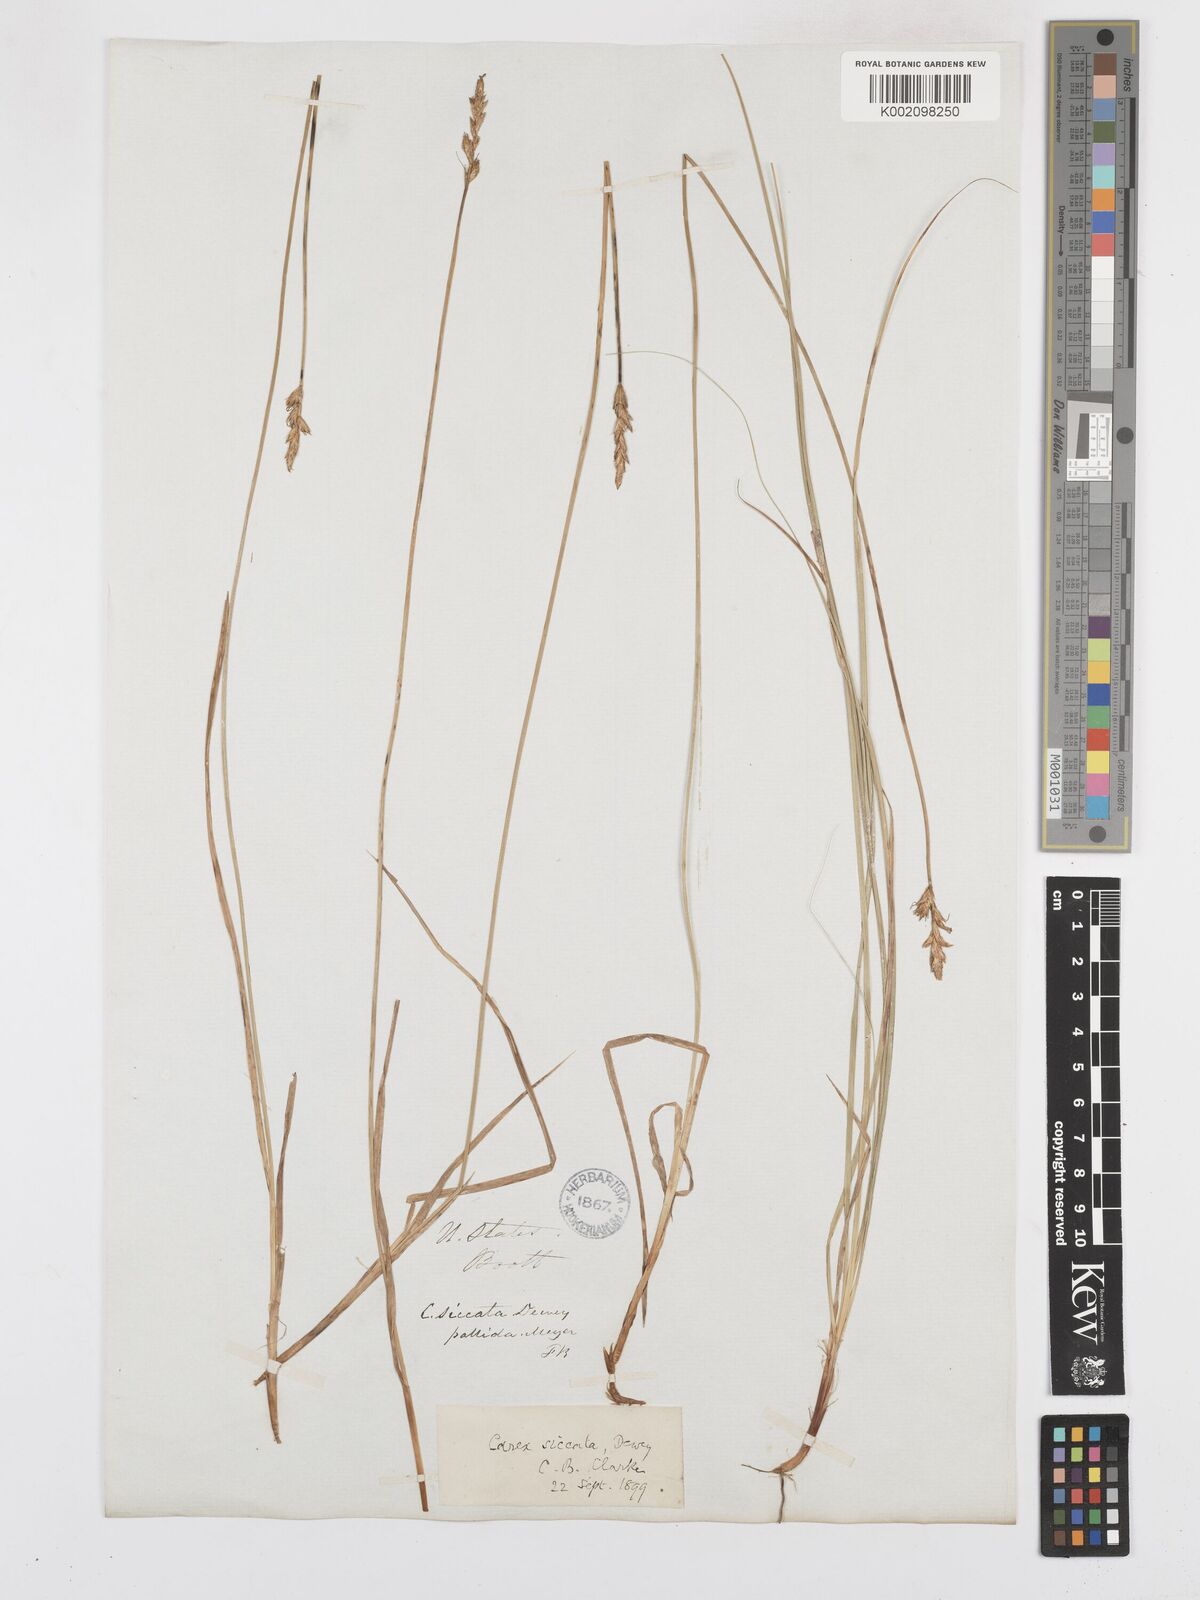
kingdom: Plantae
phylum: Tracheophyta
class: Liliopsida
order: Poales
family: Cyperaceae
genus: Carex
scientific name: Carex foenea
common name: Bronze sedge
